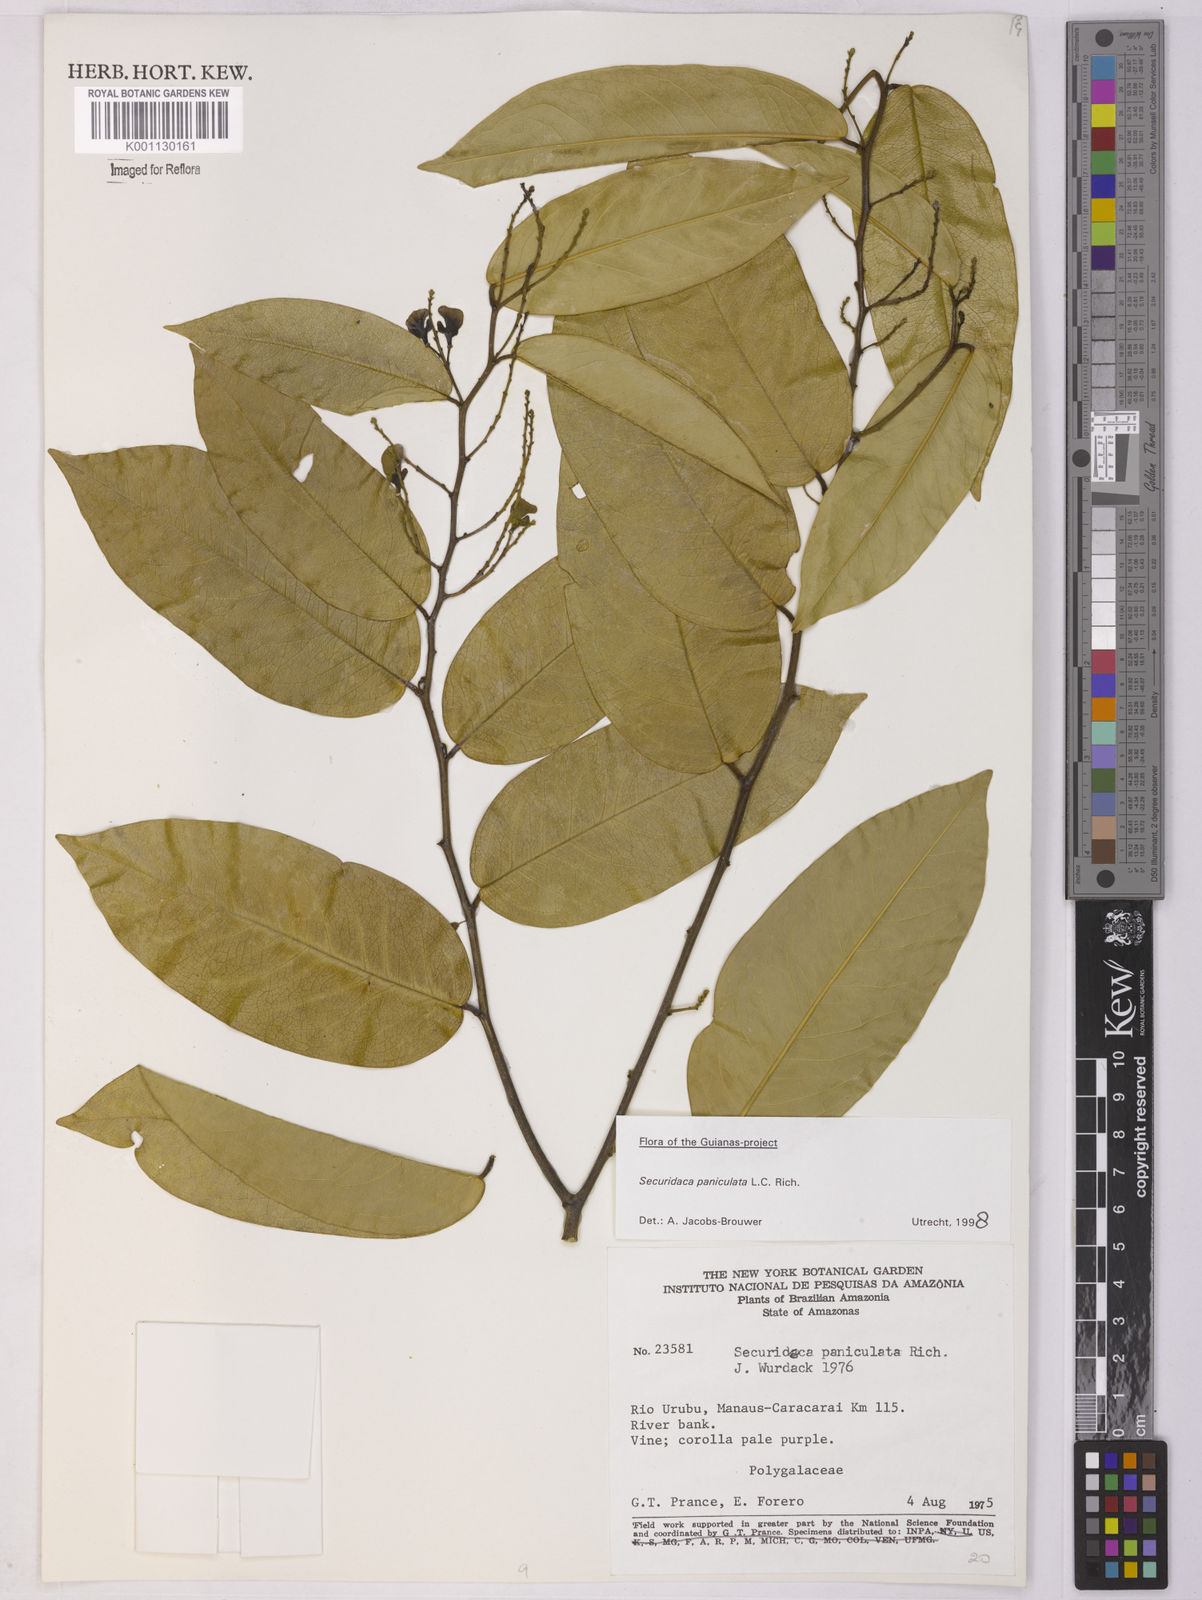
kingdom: Plantae
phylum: Tracheophyta
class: Magnoliopsida
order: Fabales
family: Polygalaceae
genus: Securidaca
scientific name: Securidaca paniculata
